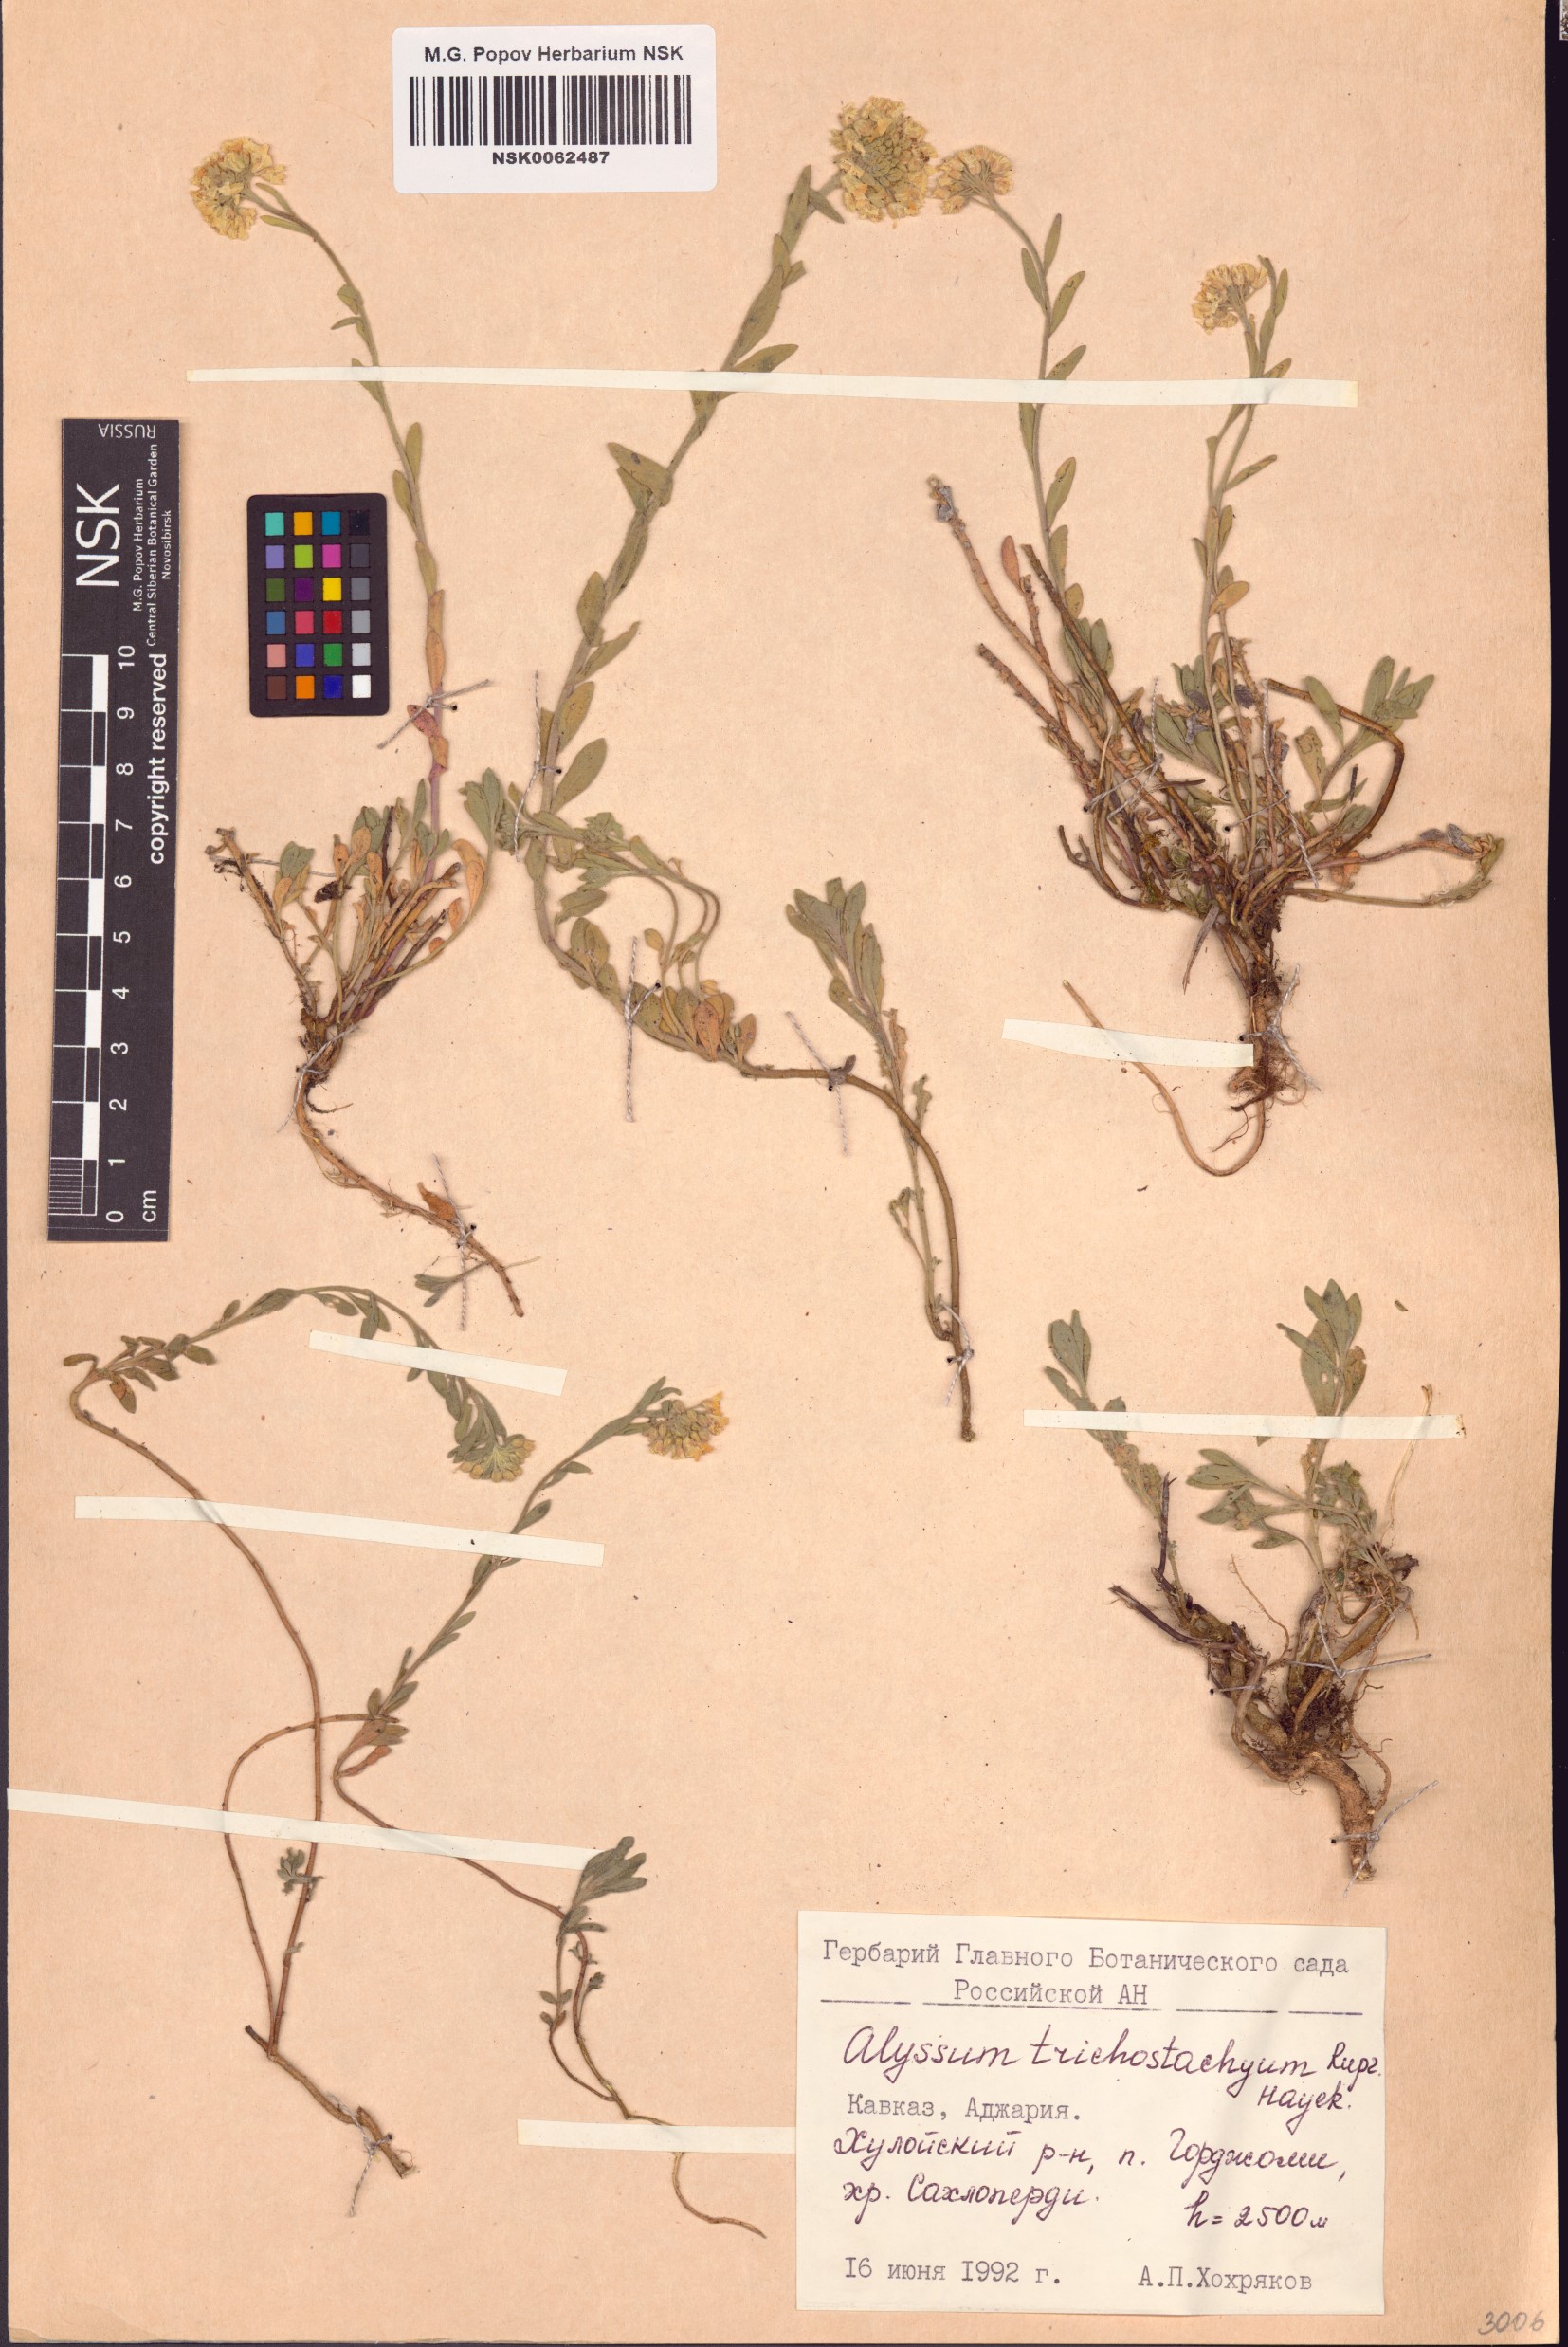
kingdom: Plantae
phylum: Tracheophyta
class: Magnoliopsida
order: Brassicales
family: Brassicaceae
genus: Alyssum
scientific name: Alyssum trichostachyum
